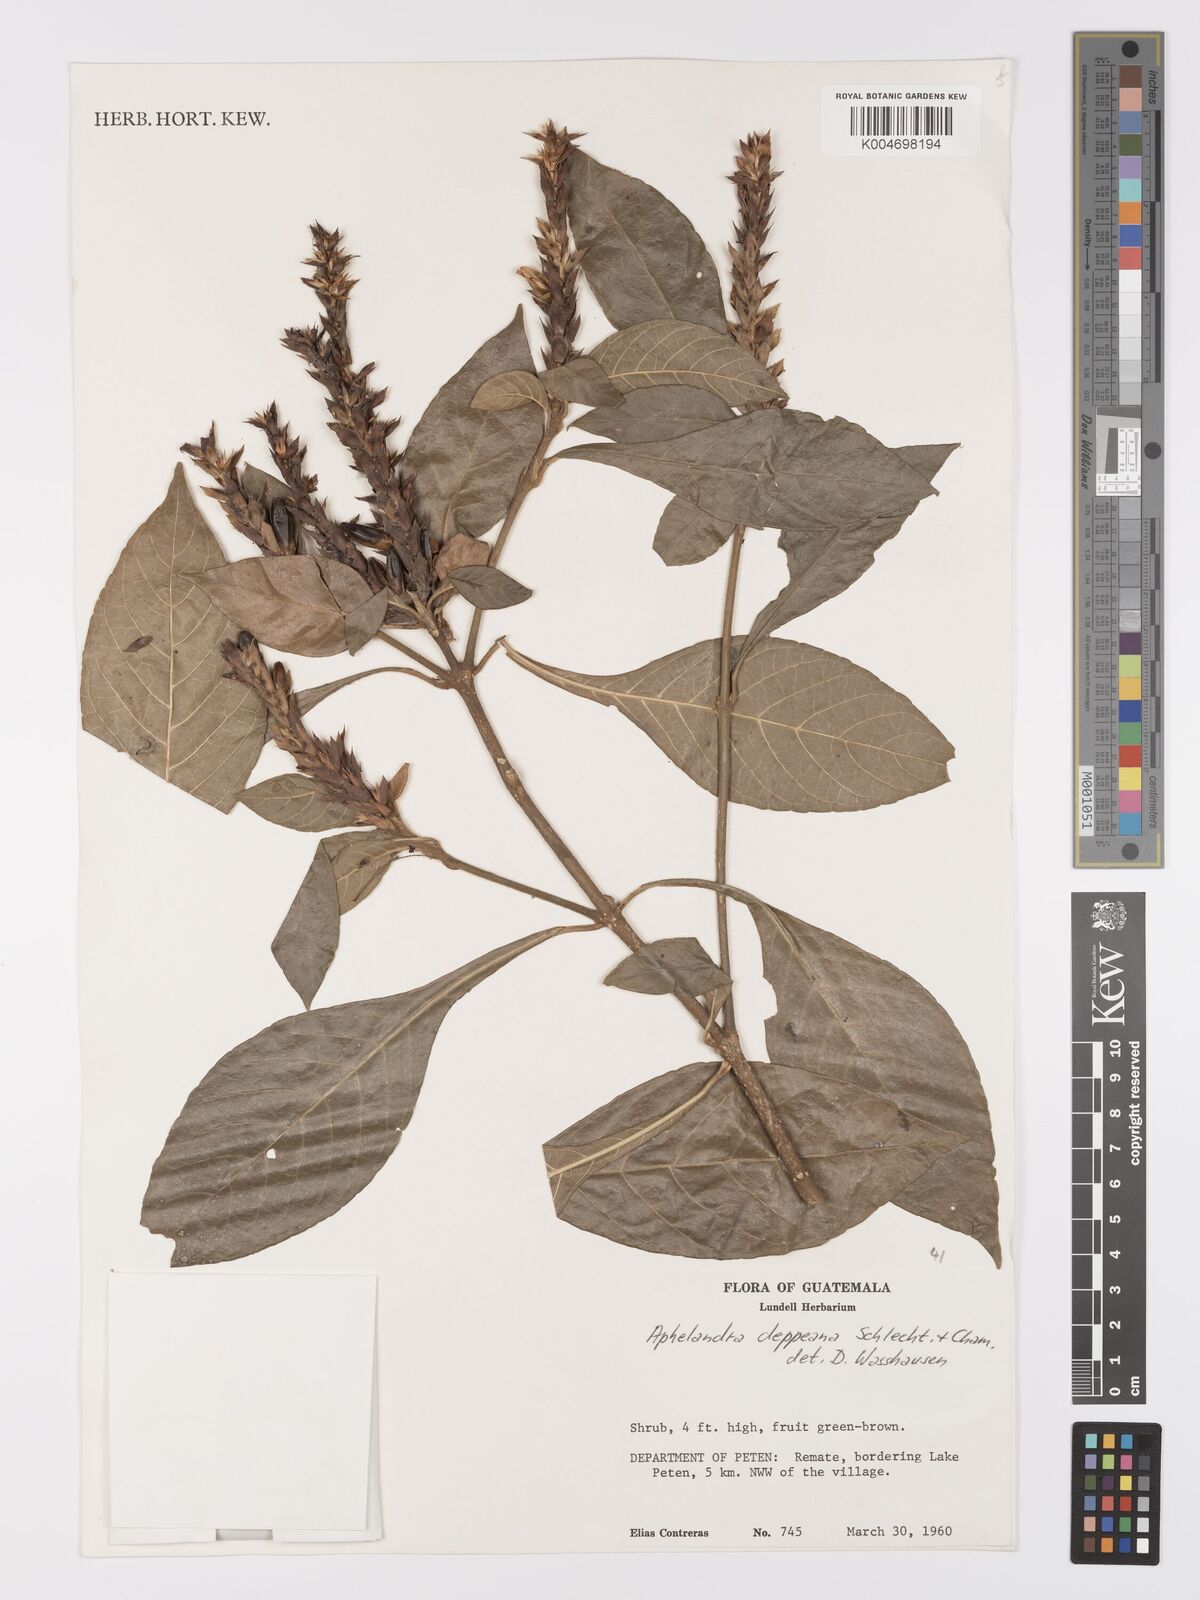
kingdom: Plantae
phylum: Tracheophyta
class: Magnoliopsida
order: Lamiales
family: Acanthaceae
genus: Aphelandra
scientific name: Aphelandra scabra
